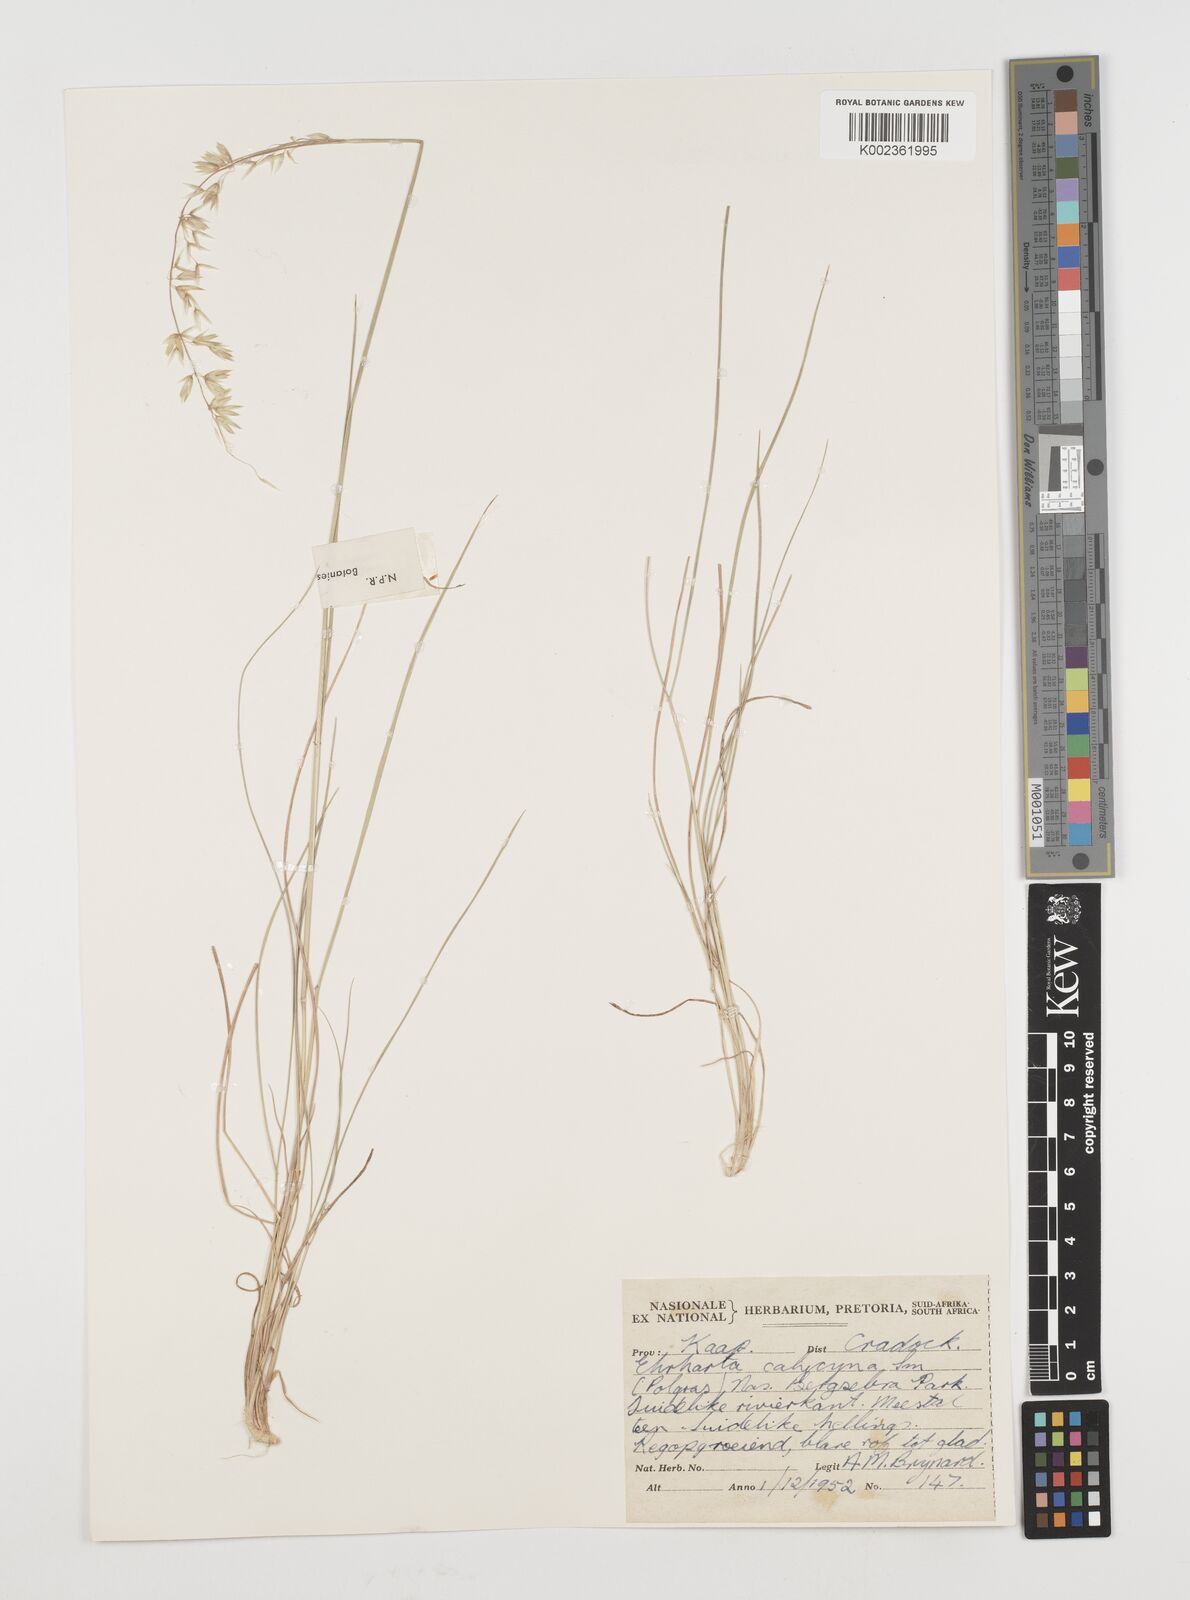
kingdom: Plantae
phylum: Tracheophyta
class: Liliopsida
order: Poales
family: Poaceae
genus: Ehrharta
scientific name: Ehrharta calycina
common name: Perennial veldtgrass
